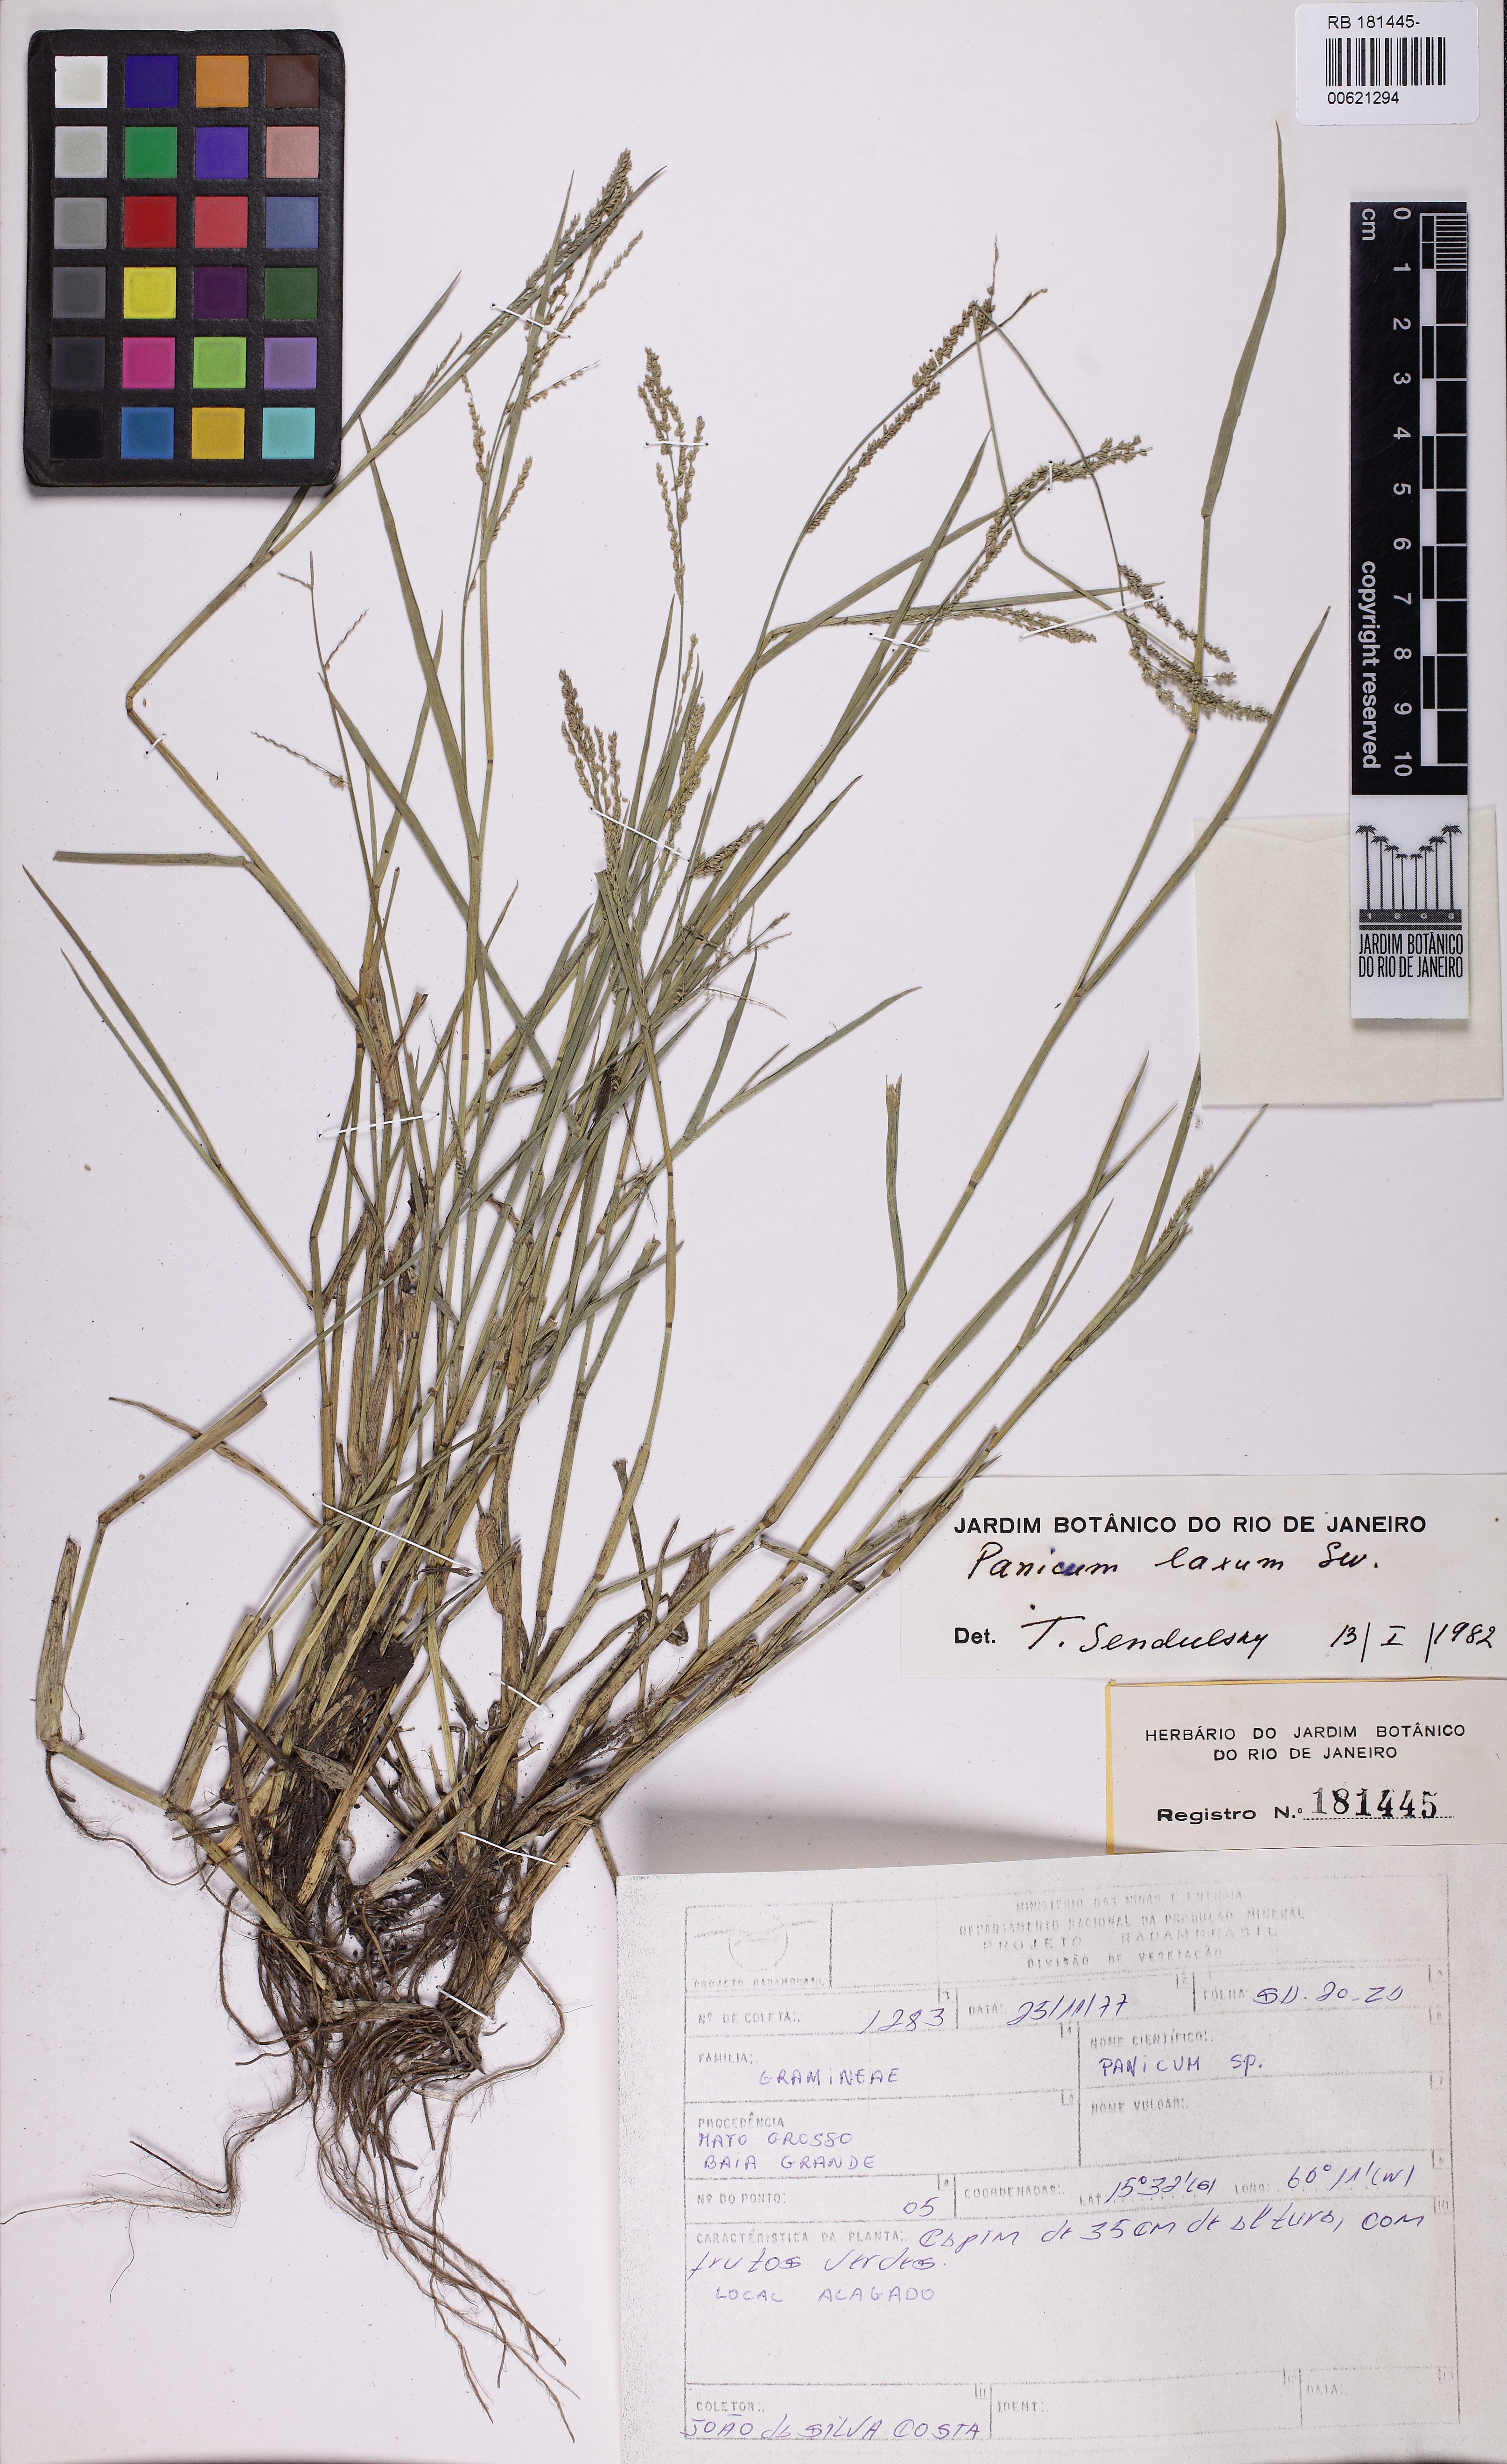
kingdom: Plantae
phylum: Tracheophyta
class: Liliopsida
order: Poales
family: Poaceae
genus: Steinchisma
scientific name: Steinchisma laxum
